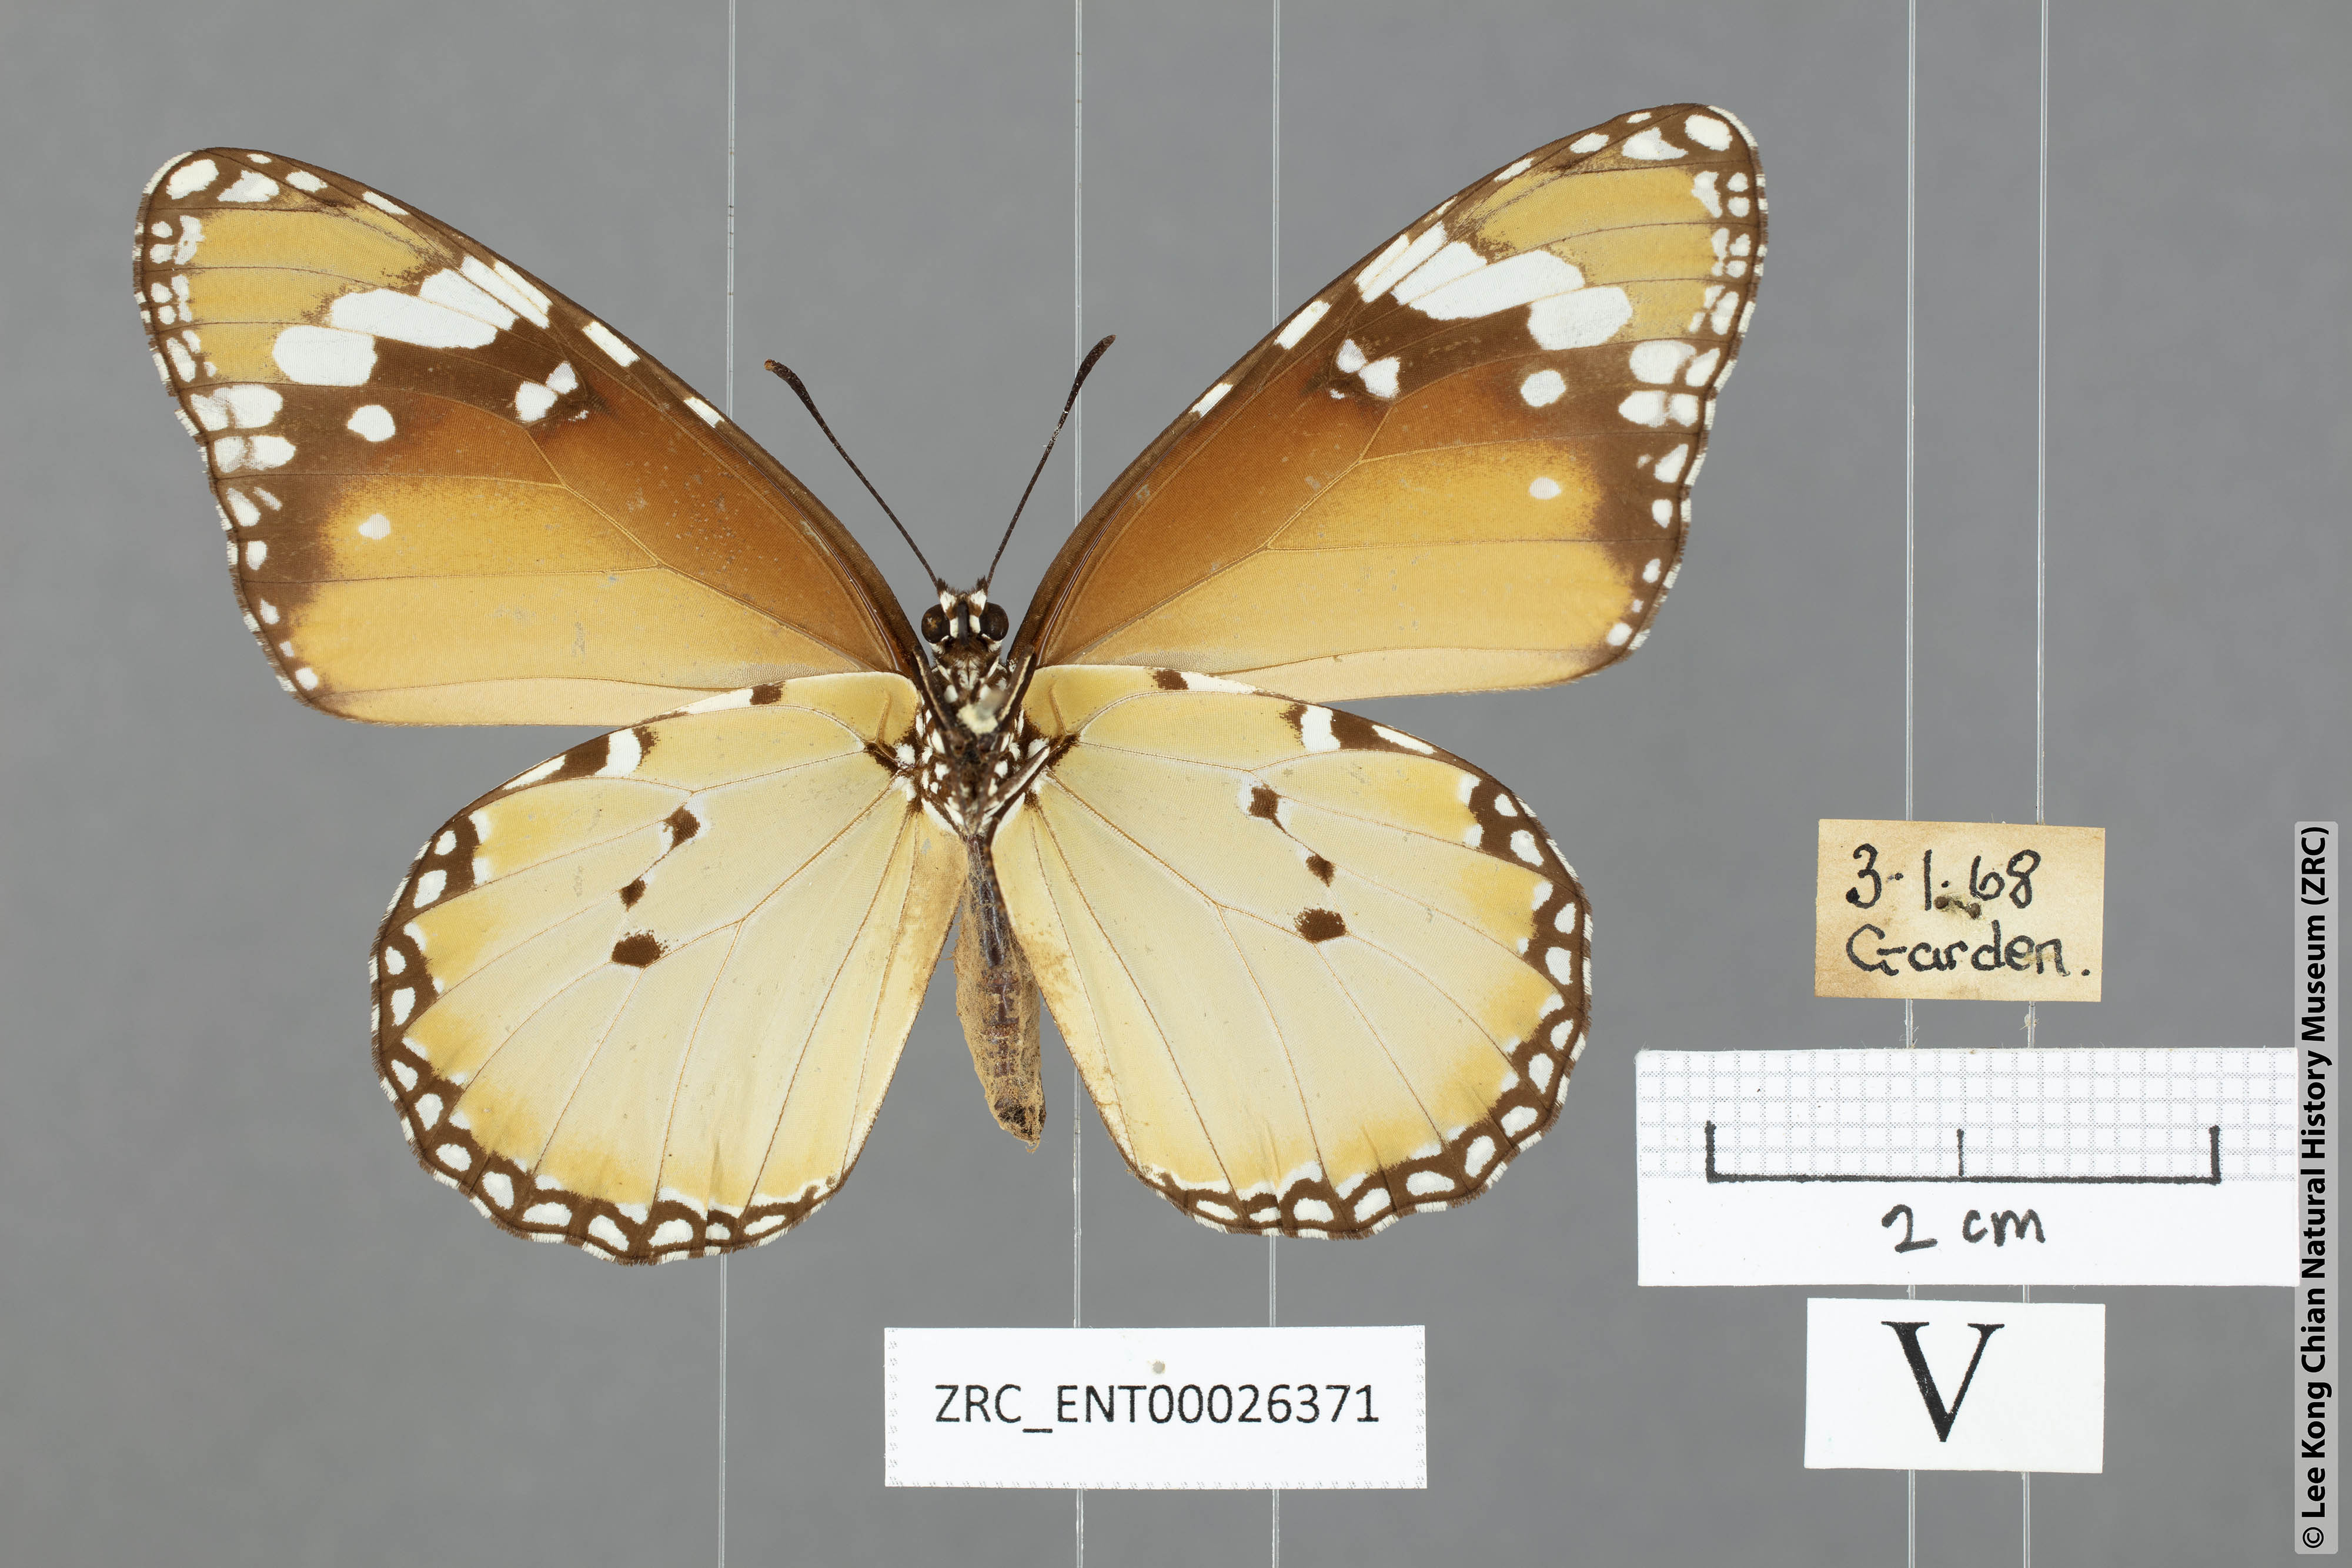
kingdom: Animalia
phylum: Arthropoda
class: Insecta
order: Lepidoptera
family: Nymphalidae
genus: Danaus
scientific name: Danaus chrysippus
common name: Plain tiger
